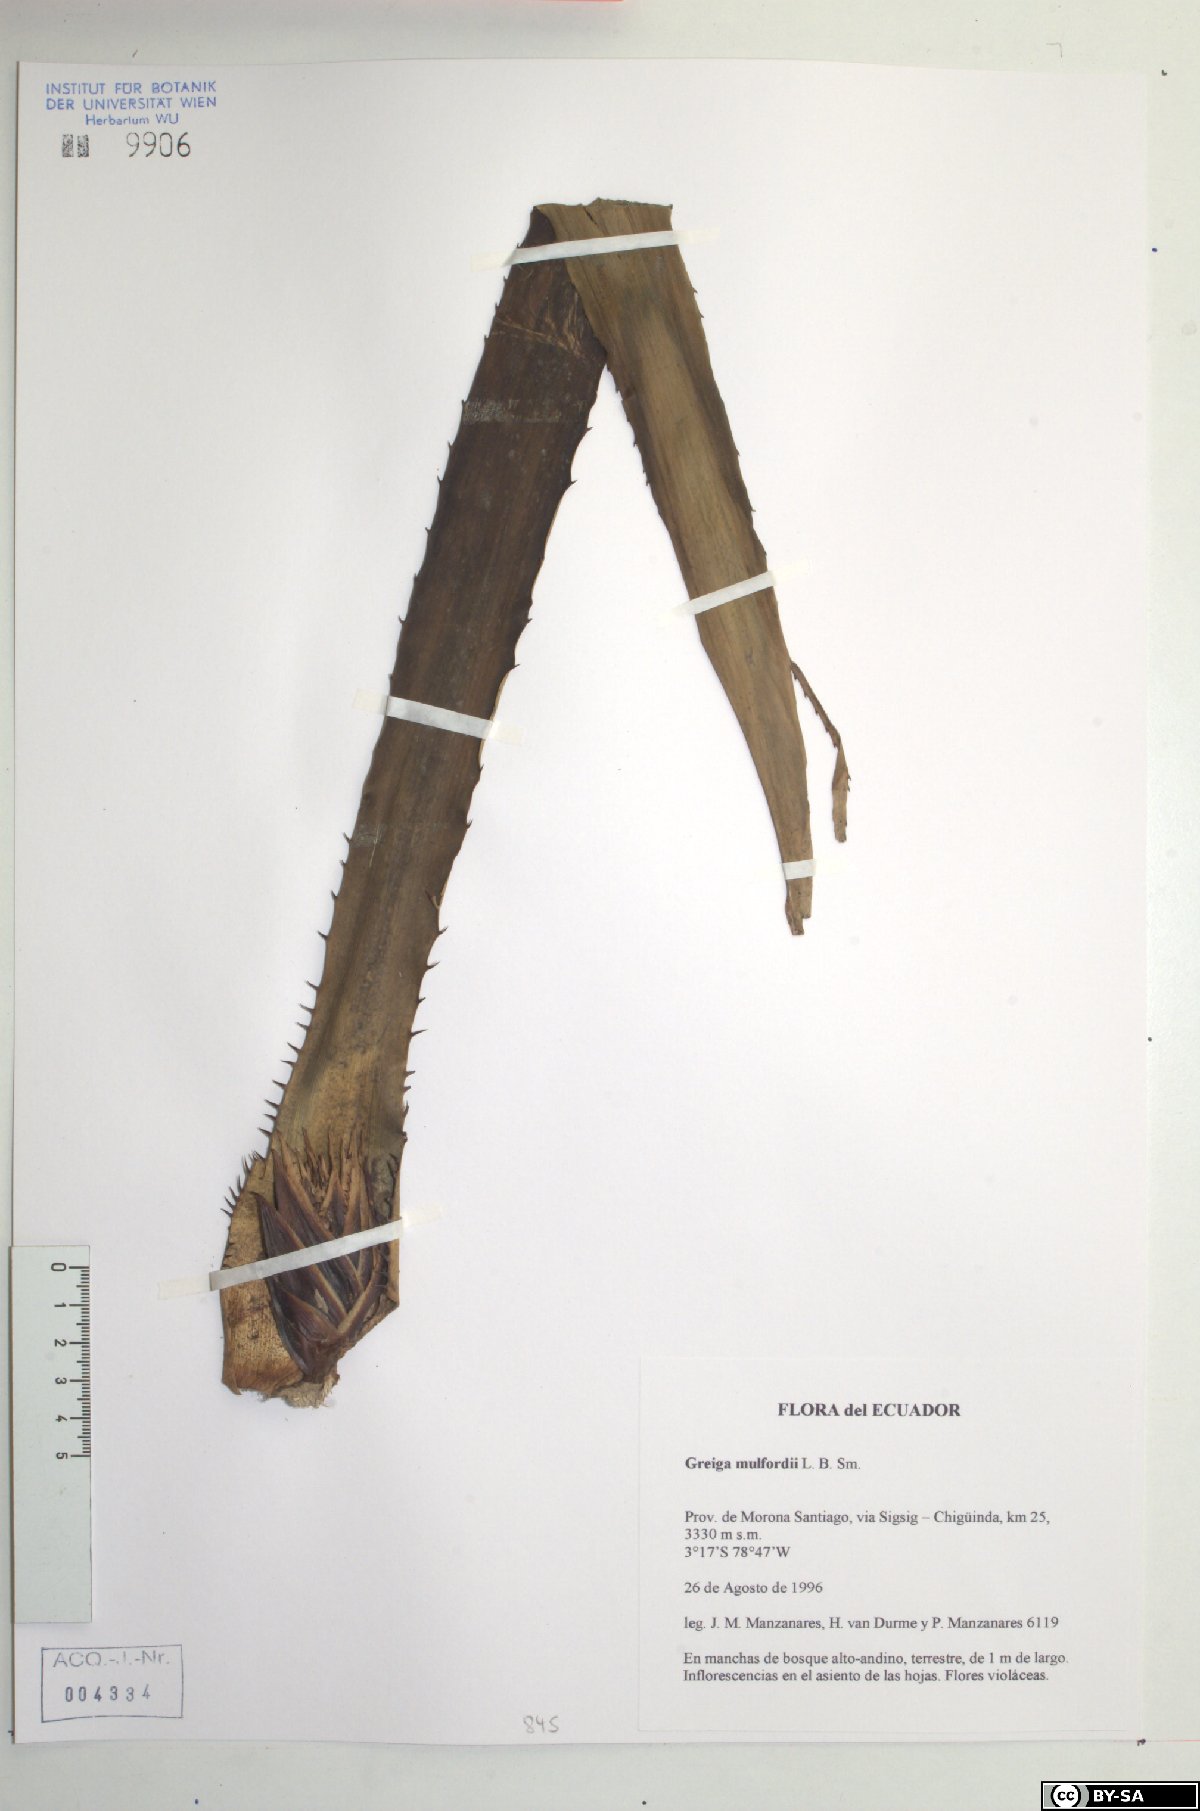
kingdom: Plantae
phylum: Tracheophyta
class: Liliopsida
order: Poales
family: Bromeliaceae
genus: Greigia
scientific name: Greigia mulfordii
